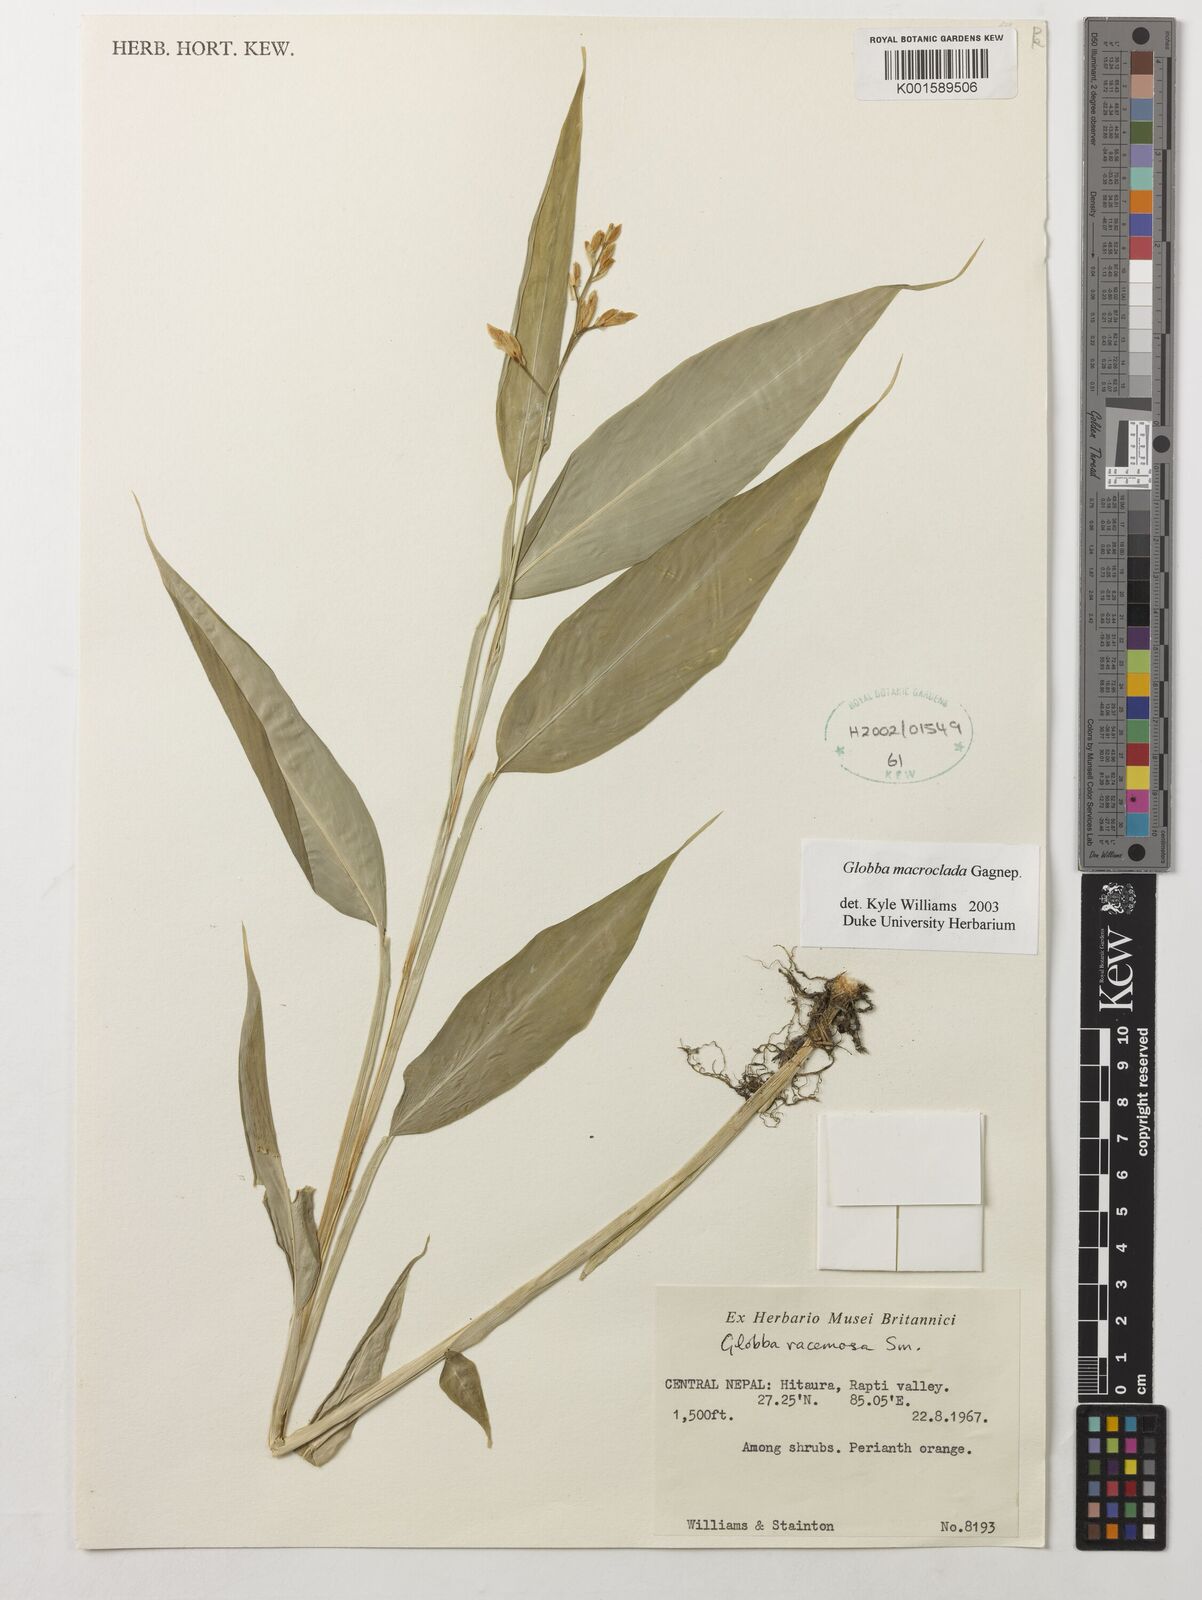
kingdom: Plantae
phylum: Tracheophyta
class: Liliopsida
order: Zingiberales
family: Zingiberaceae
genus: Globba
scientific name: Globba macroclada
